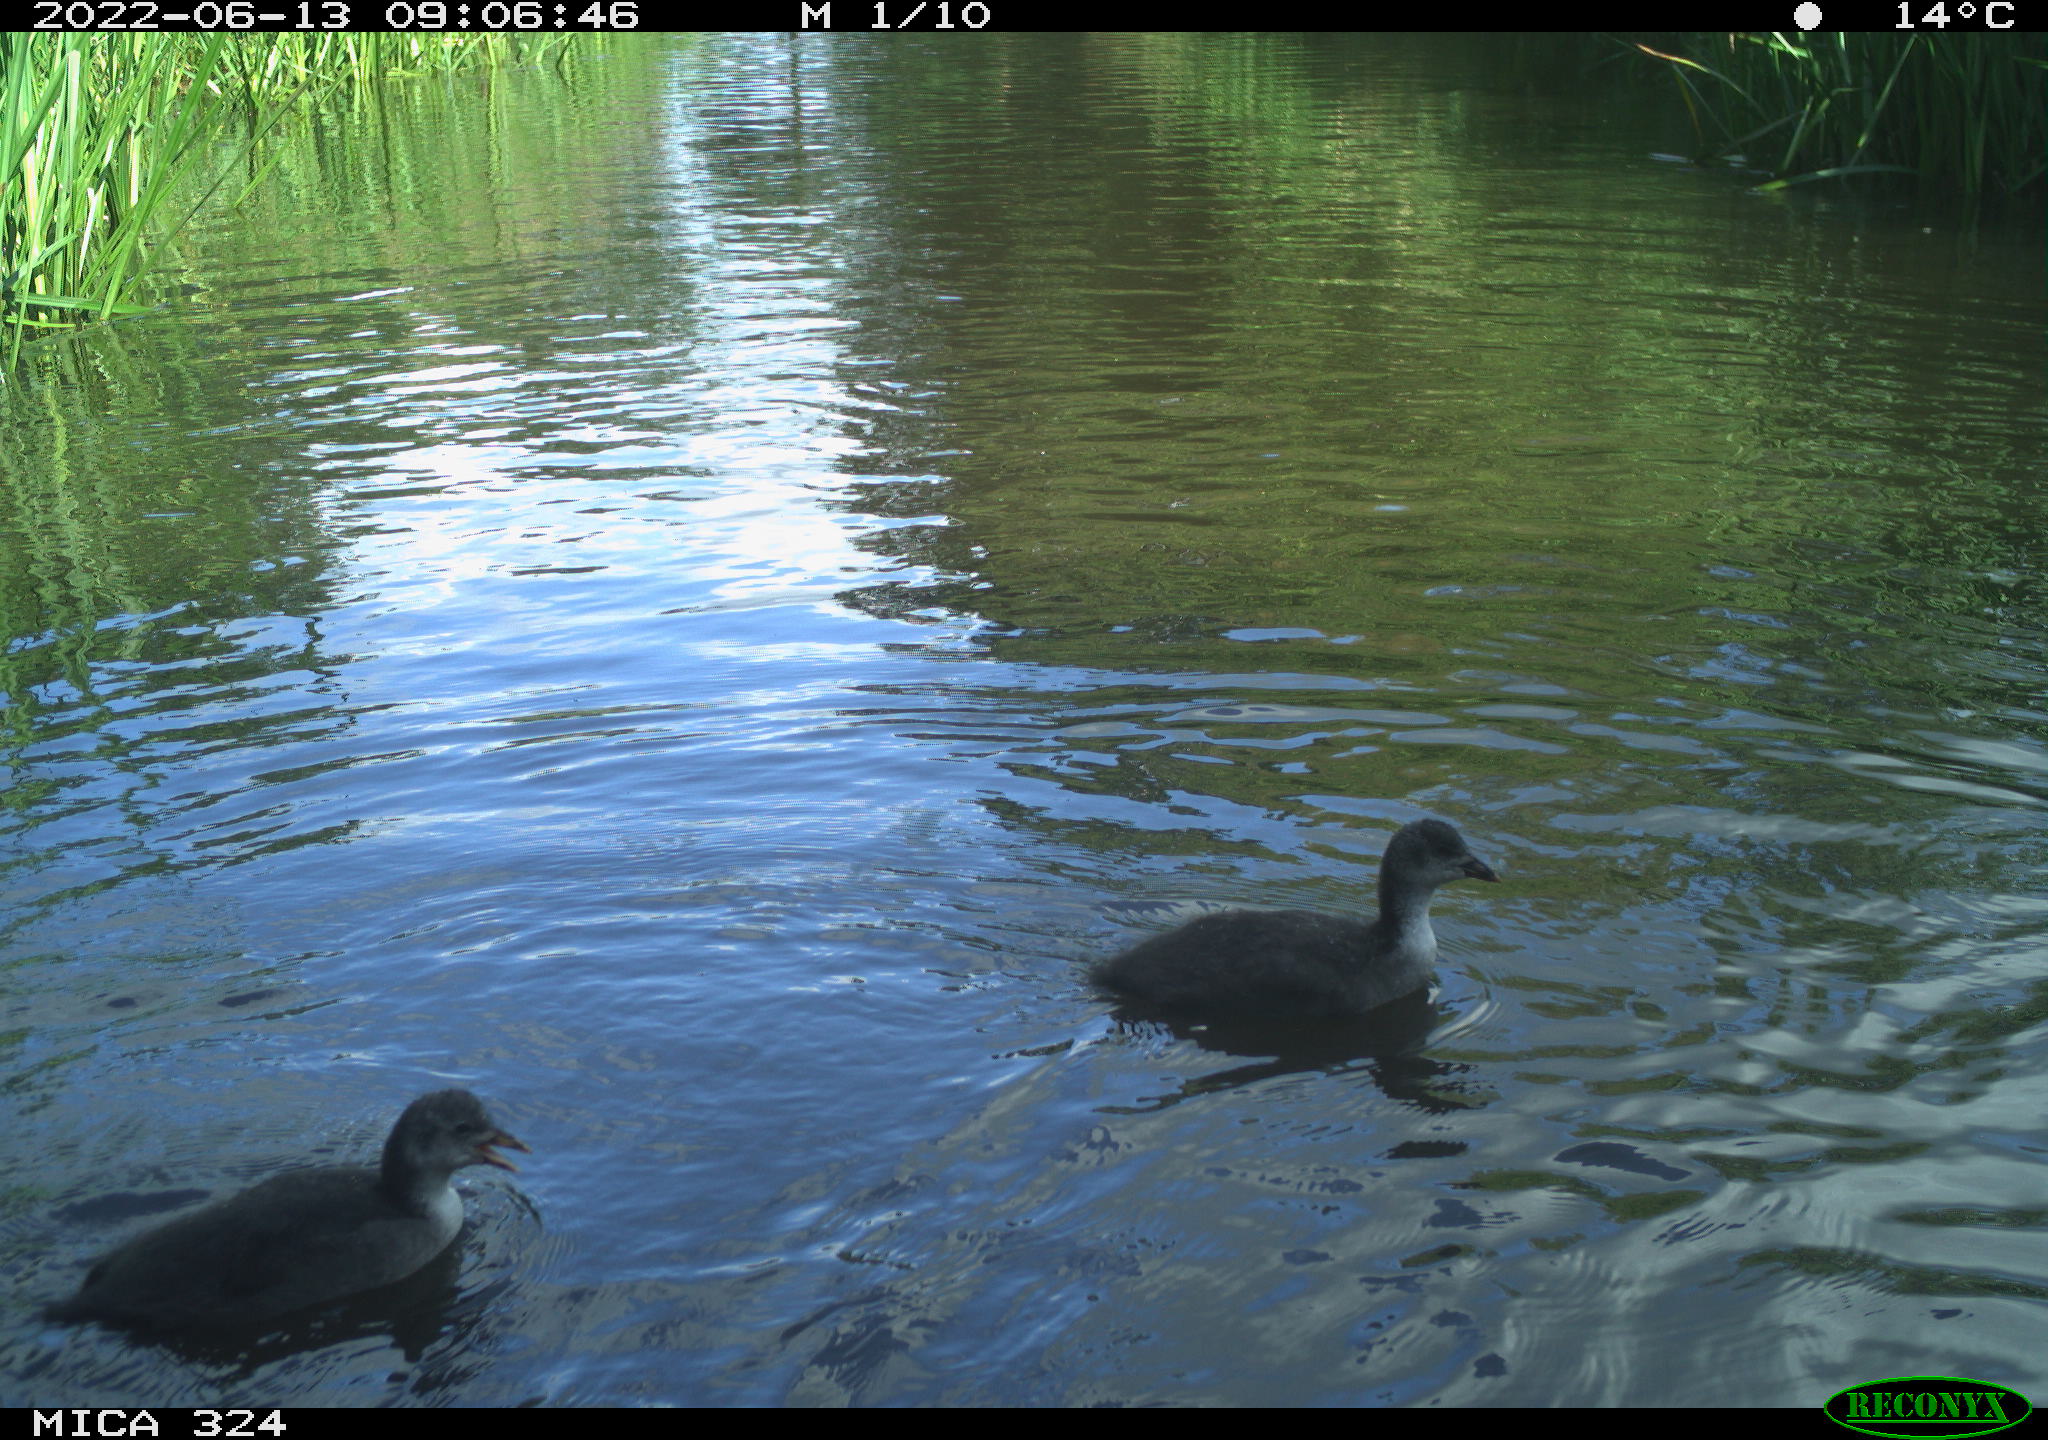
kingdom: Animalia
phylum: Chordata
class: Aves
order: Gruiformes
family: Rallidae
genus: Fulica
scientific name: Fulica atra
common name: Eurasian coot
